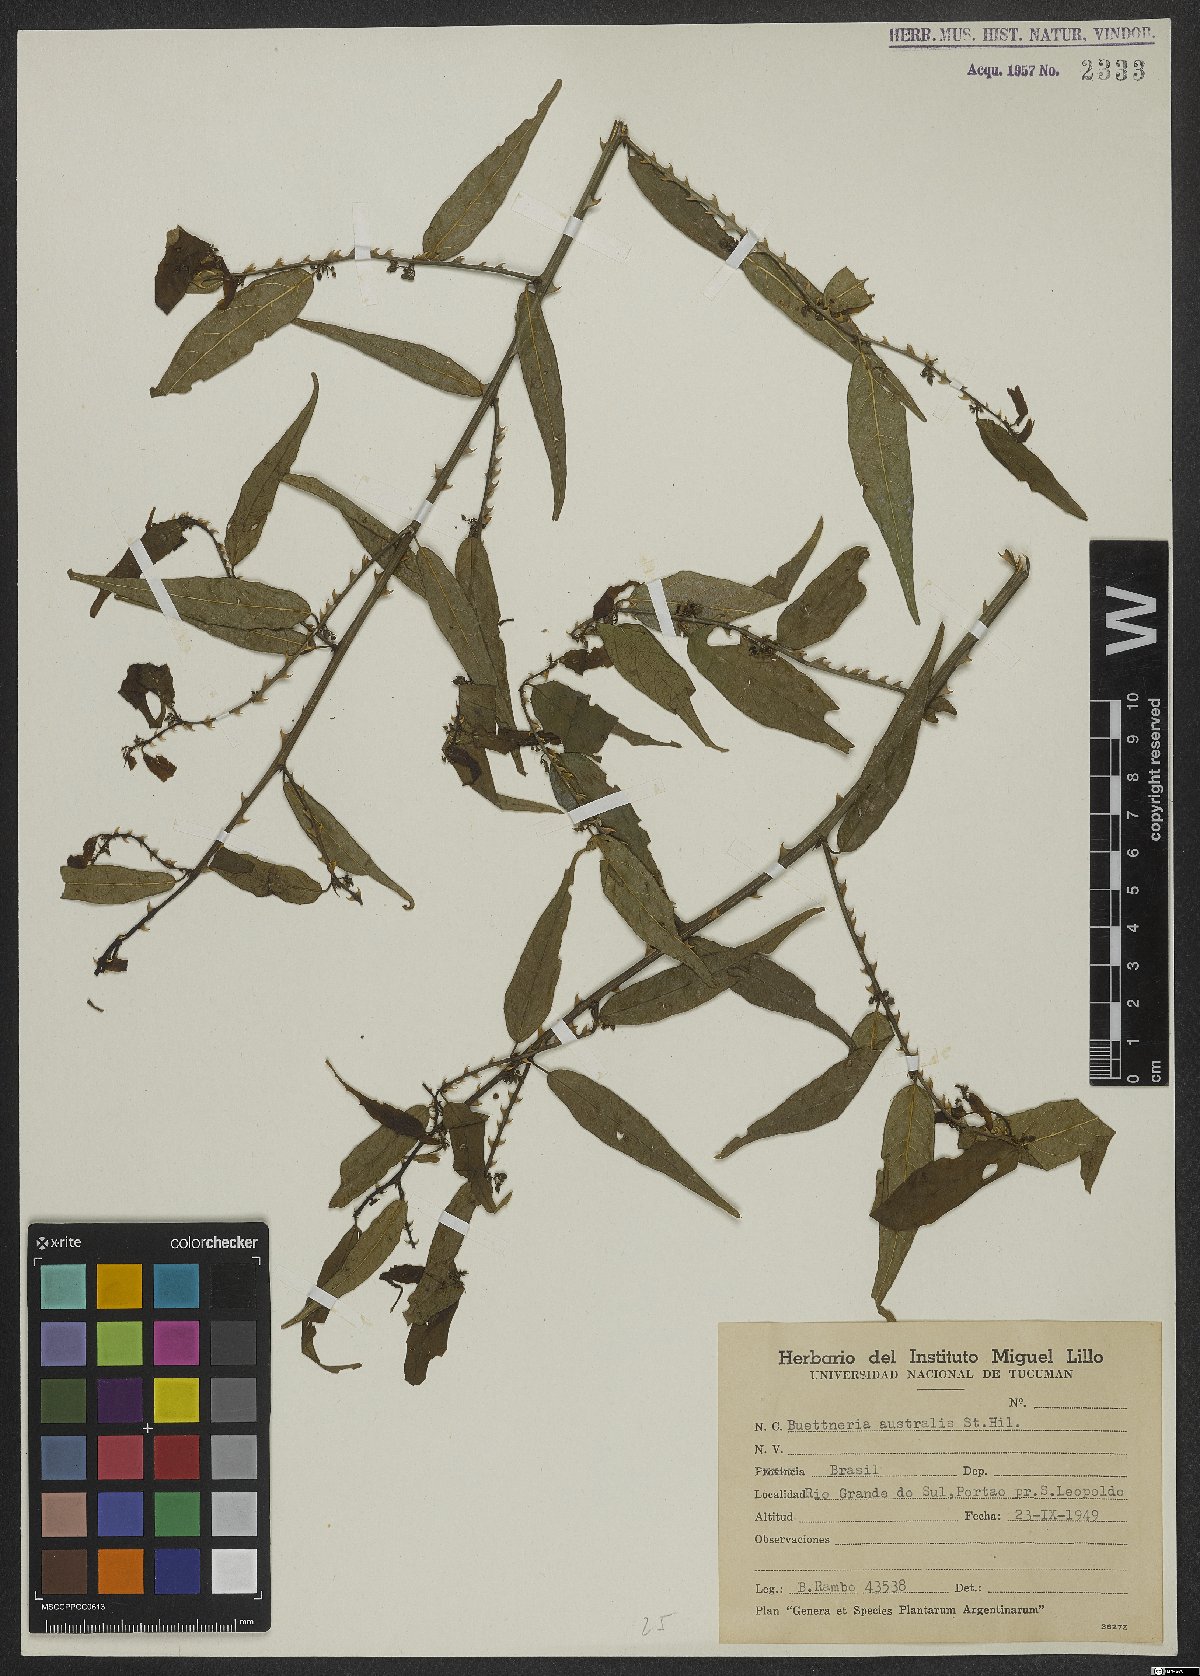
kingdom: Plantae
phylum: Tracheophyta
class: Magnoliopsida
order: Malvales
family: Malvaceae
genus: Byttneria
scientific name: Byttneria australis
